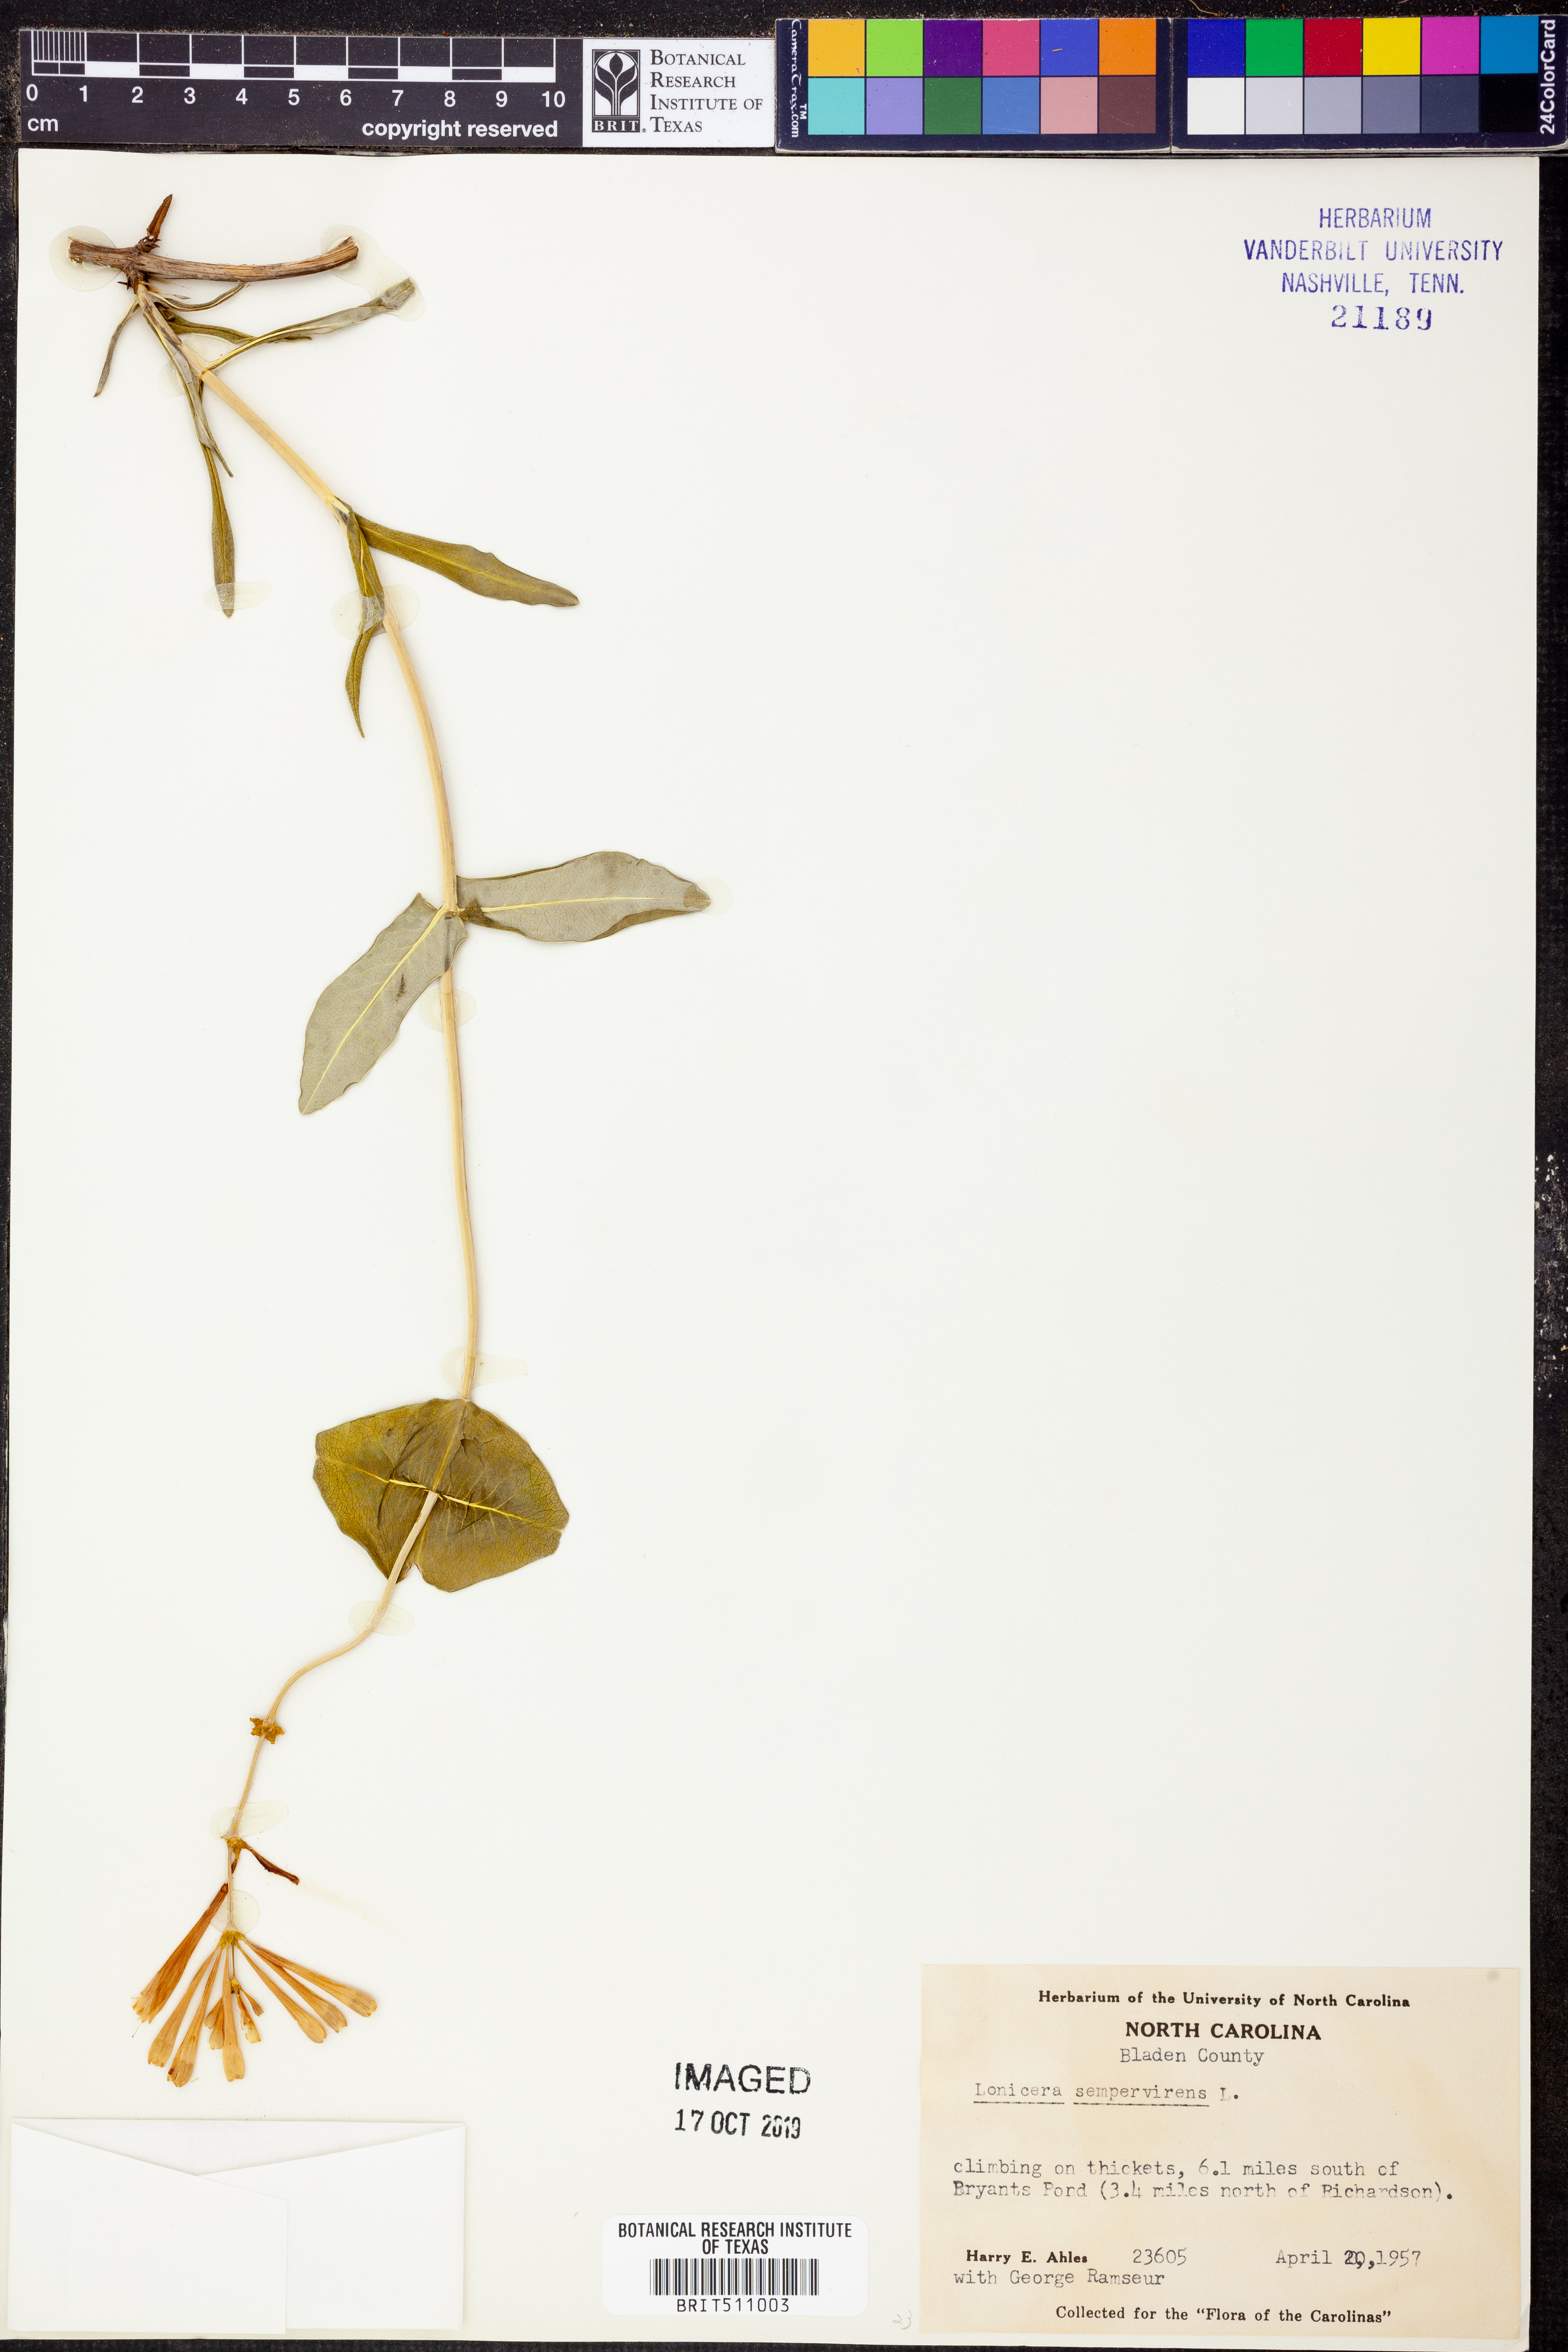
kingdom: Plantae
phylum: Tracheophyta
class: Magnoliopsida
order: Dipsacales
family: Caprifoliaceae
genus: Lonicera
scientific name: Lonicera sempervirens
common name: Coral honeysuckle
